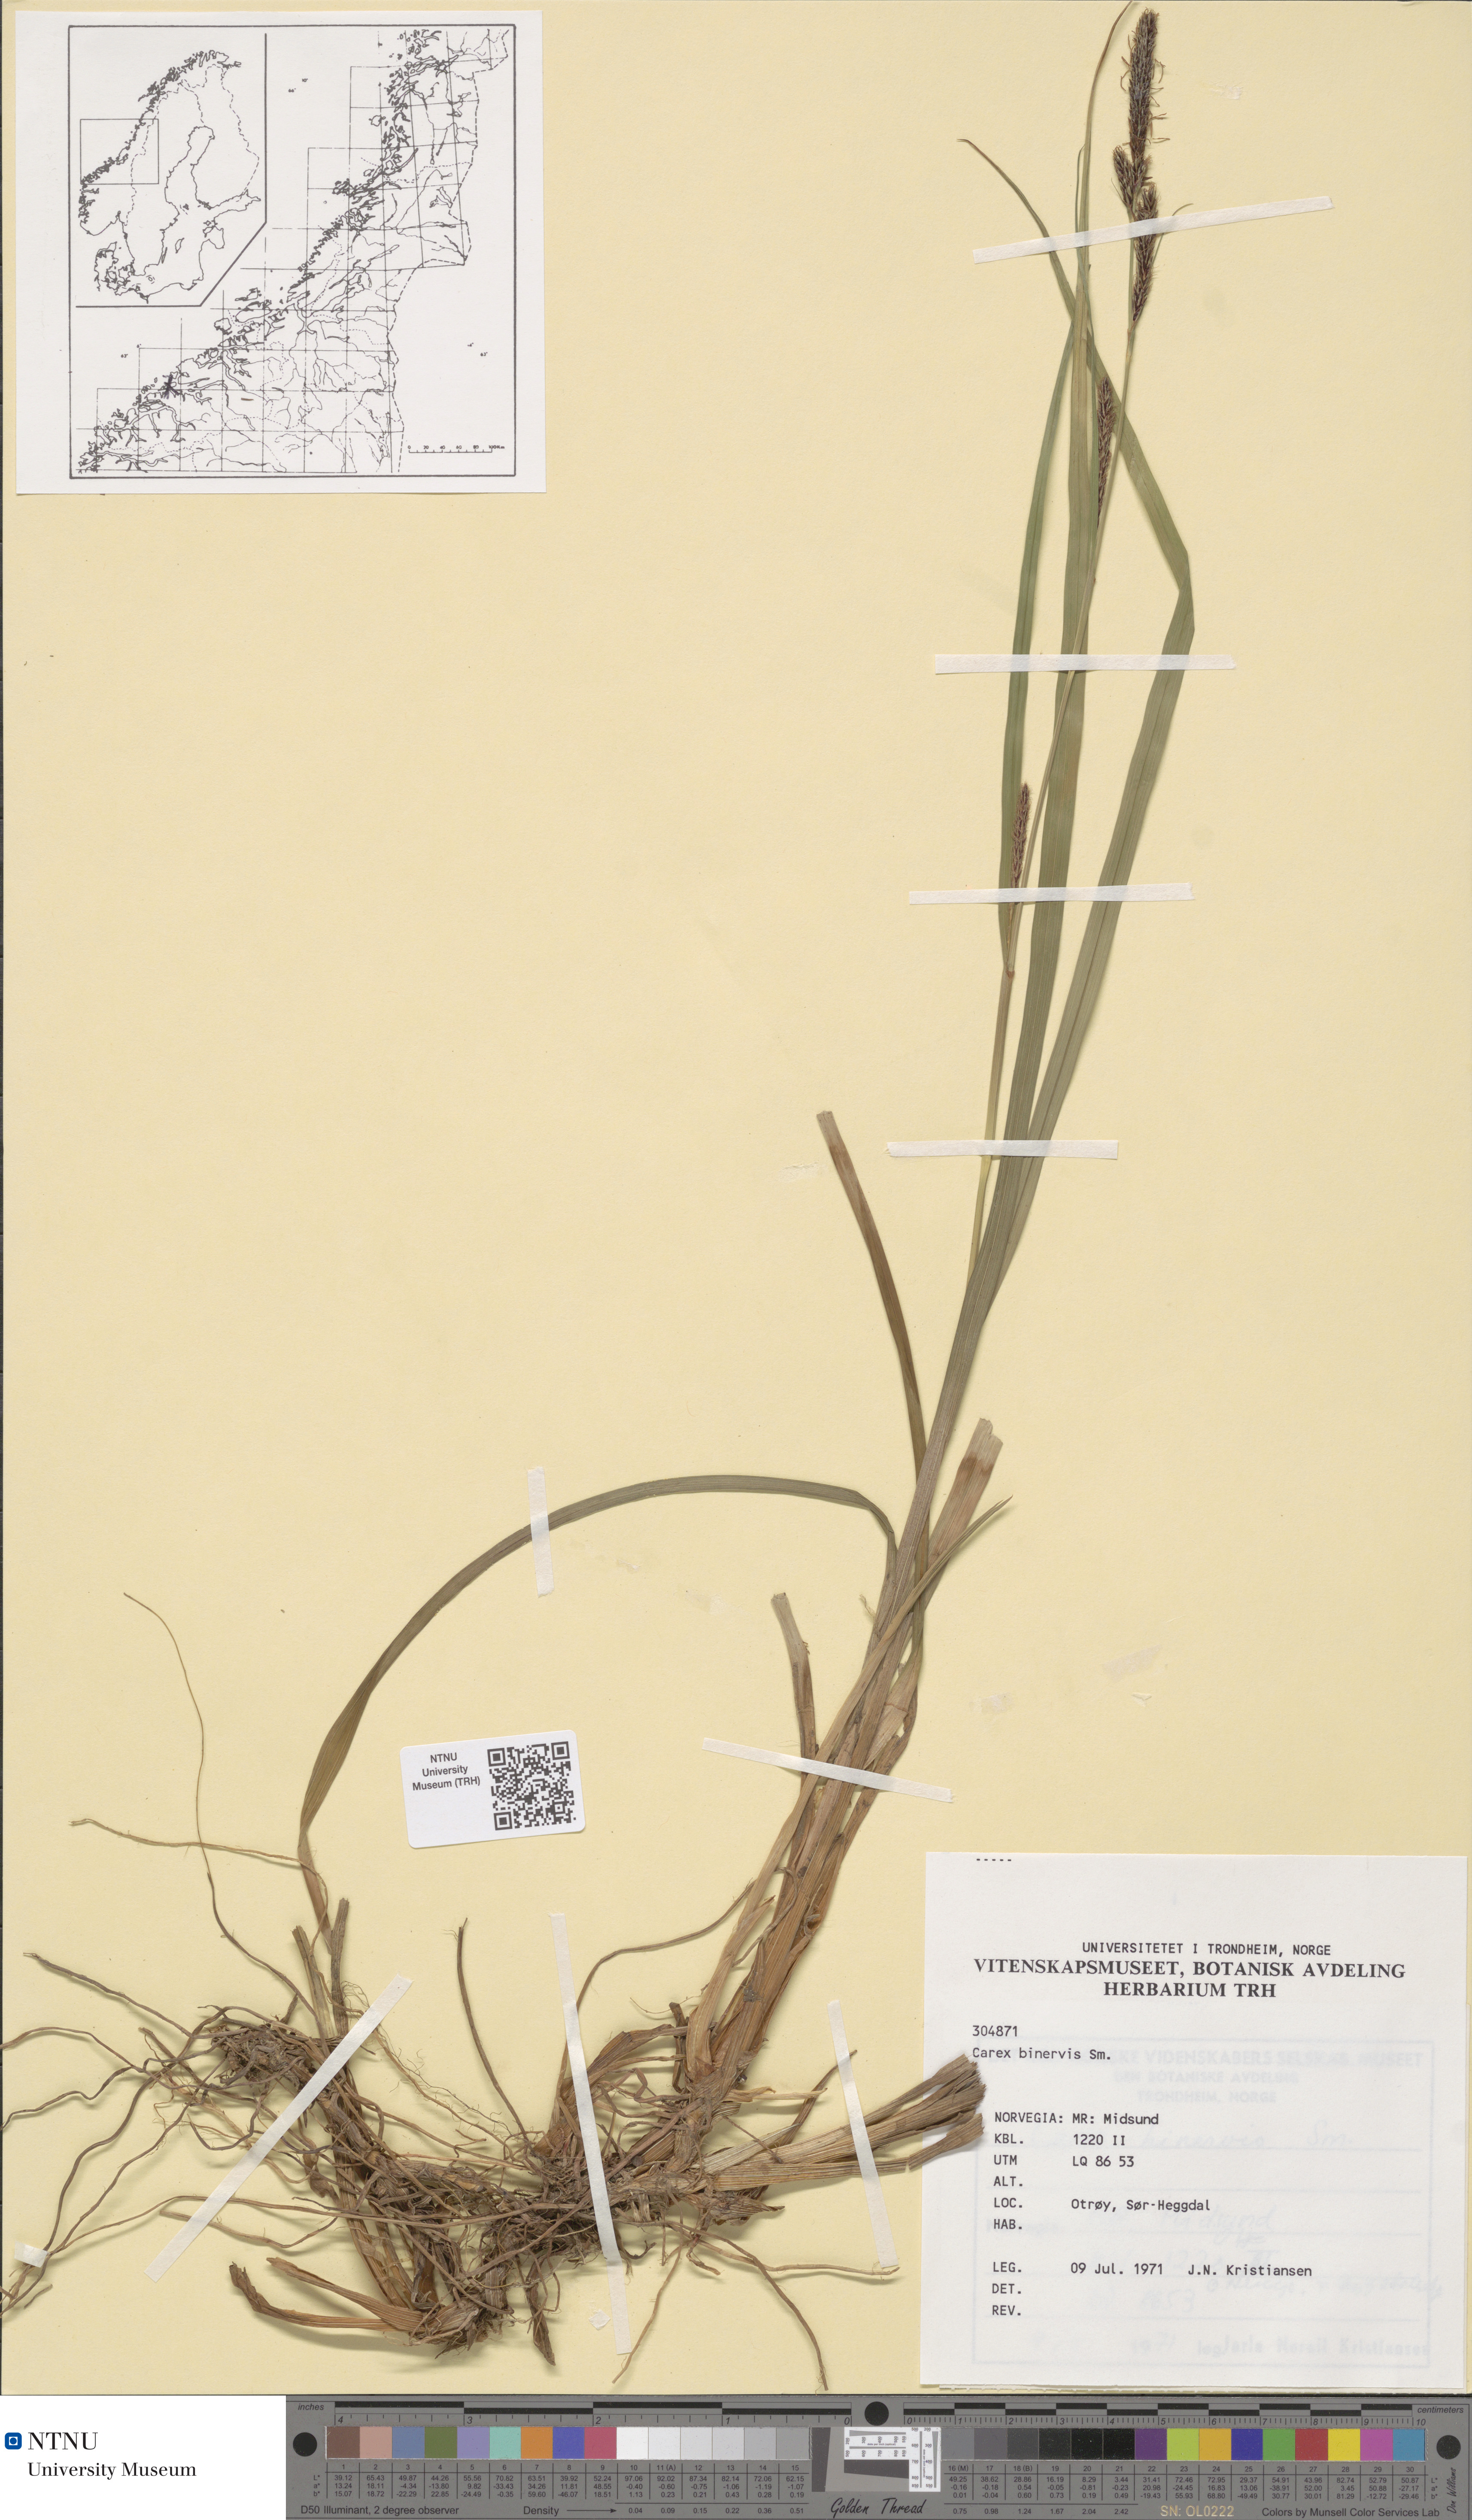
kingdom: Plantae
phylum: Tracheophyta
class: Liliopsida
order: Poales
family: Cyperaceae
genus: Carex
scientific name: Carex binervis
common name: Green-ribbed sedge
